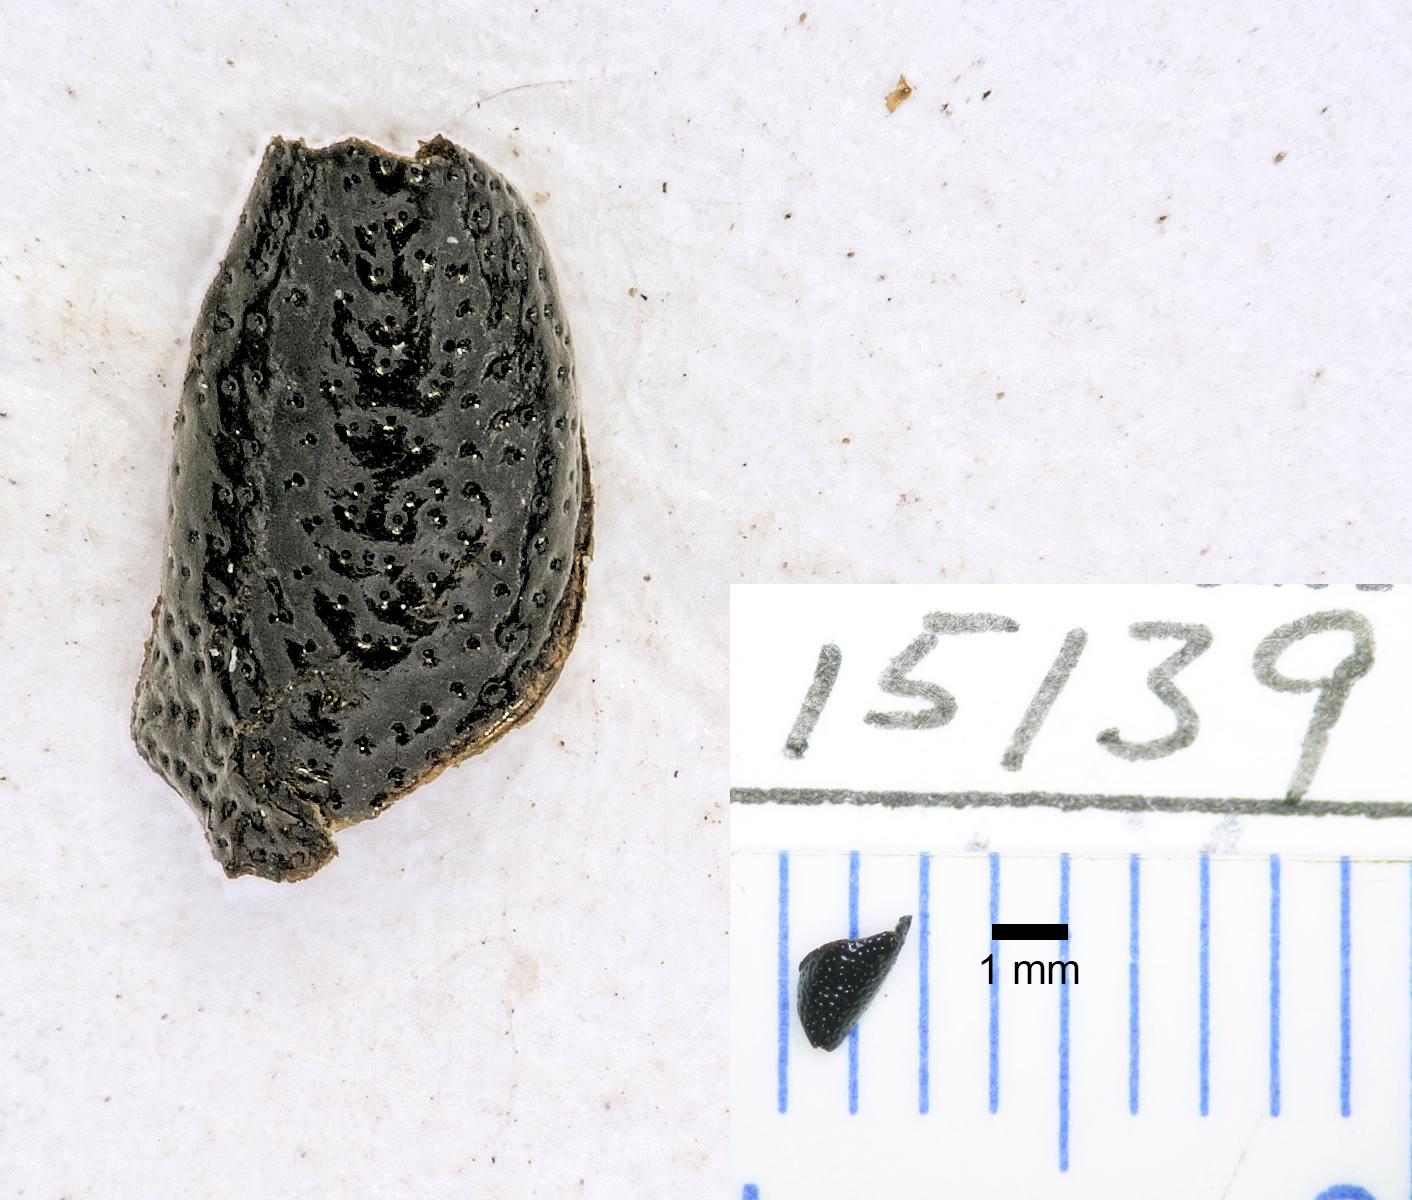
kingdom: Animalia
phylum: Arthropoda
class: Insecta
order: Coleoptera
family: Carabidae
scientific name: Carabidae
